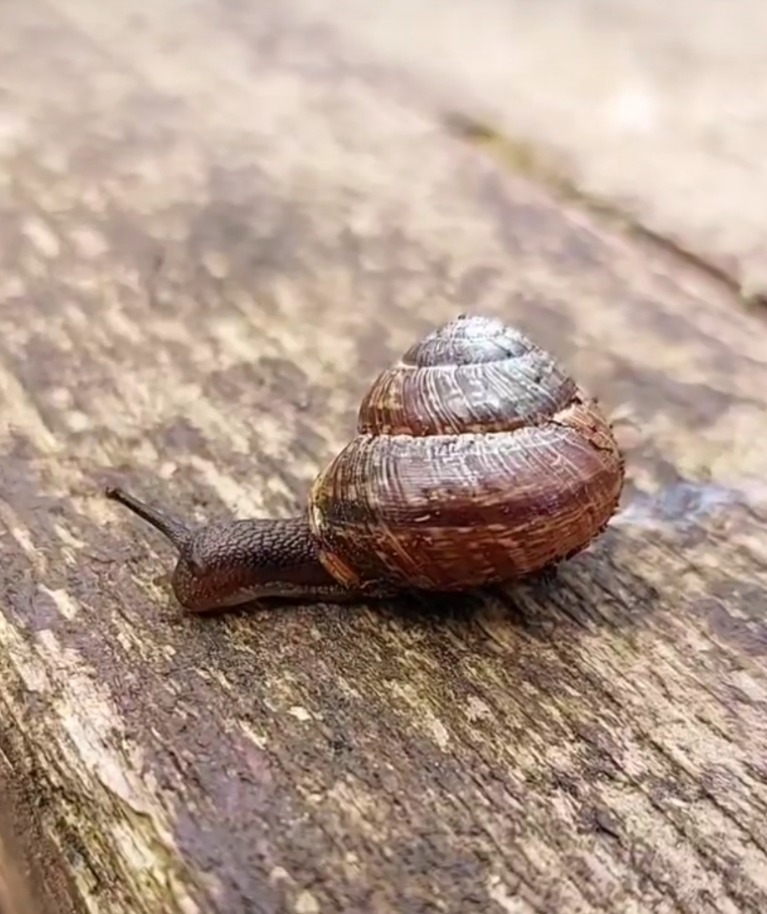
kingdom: Animalia
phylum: Mollusca
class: Gastropoda
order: Stylommatophora
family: Helicidae
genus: Arianta
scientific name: Arianta arbustorum
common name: Kratsnegl
